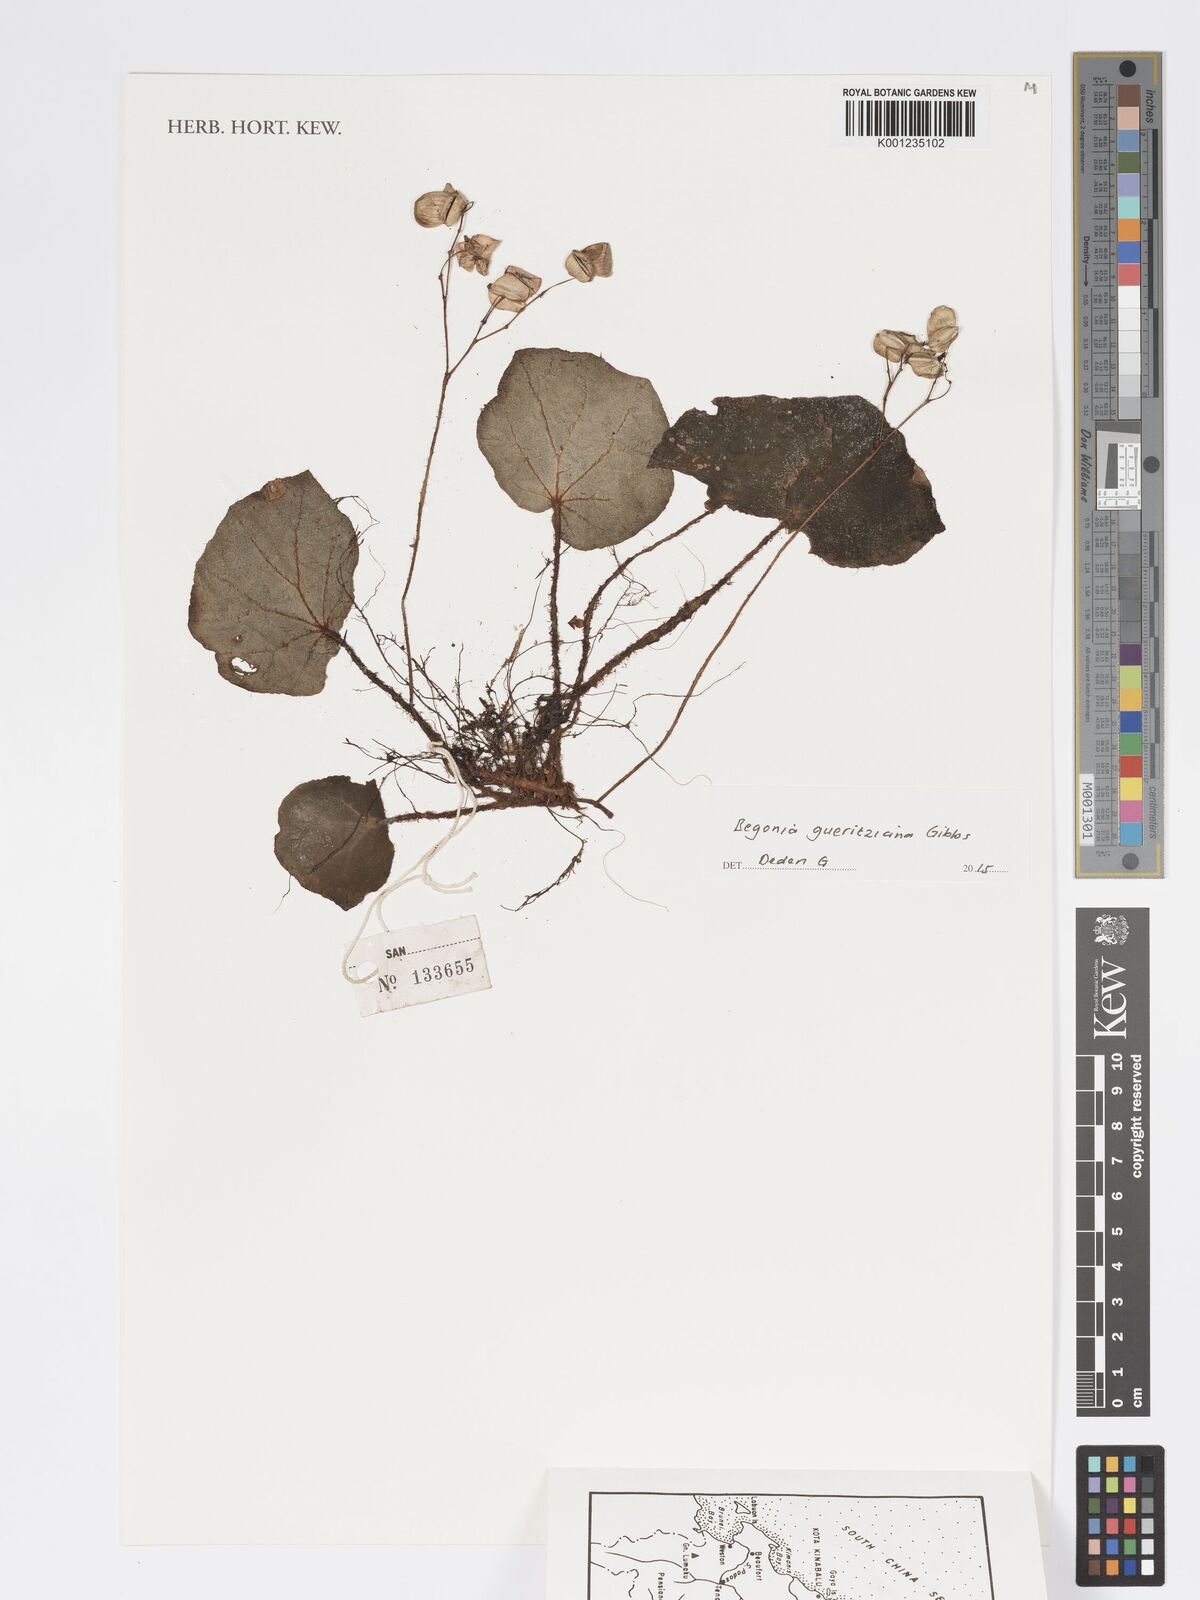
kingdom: Plantae
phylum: Tracheophyta
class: Magnoliopsida
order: Cucurbitales
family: Begoniaceae
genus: Begonia
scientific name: Begonia gueritziana
